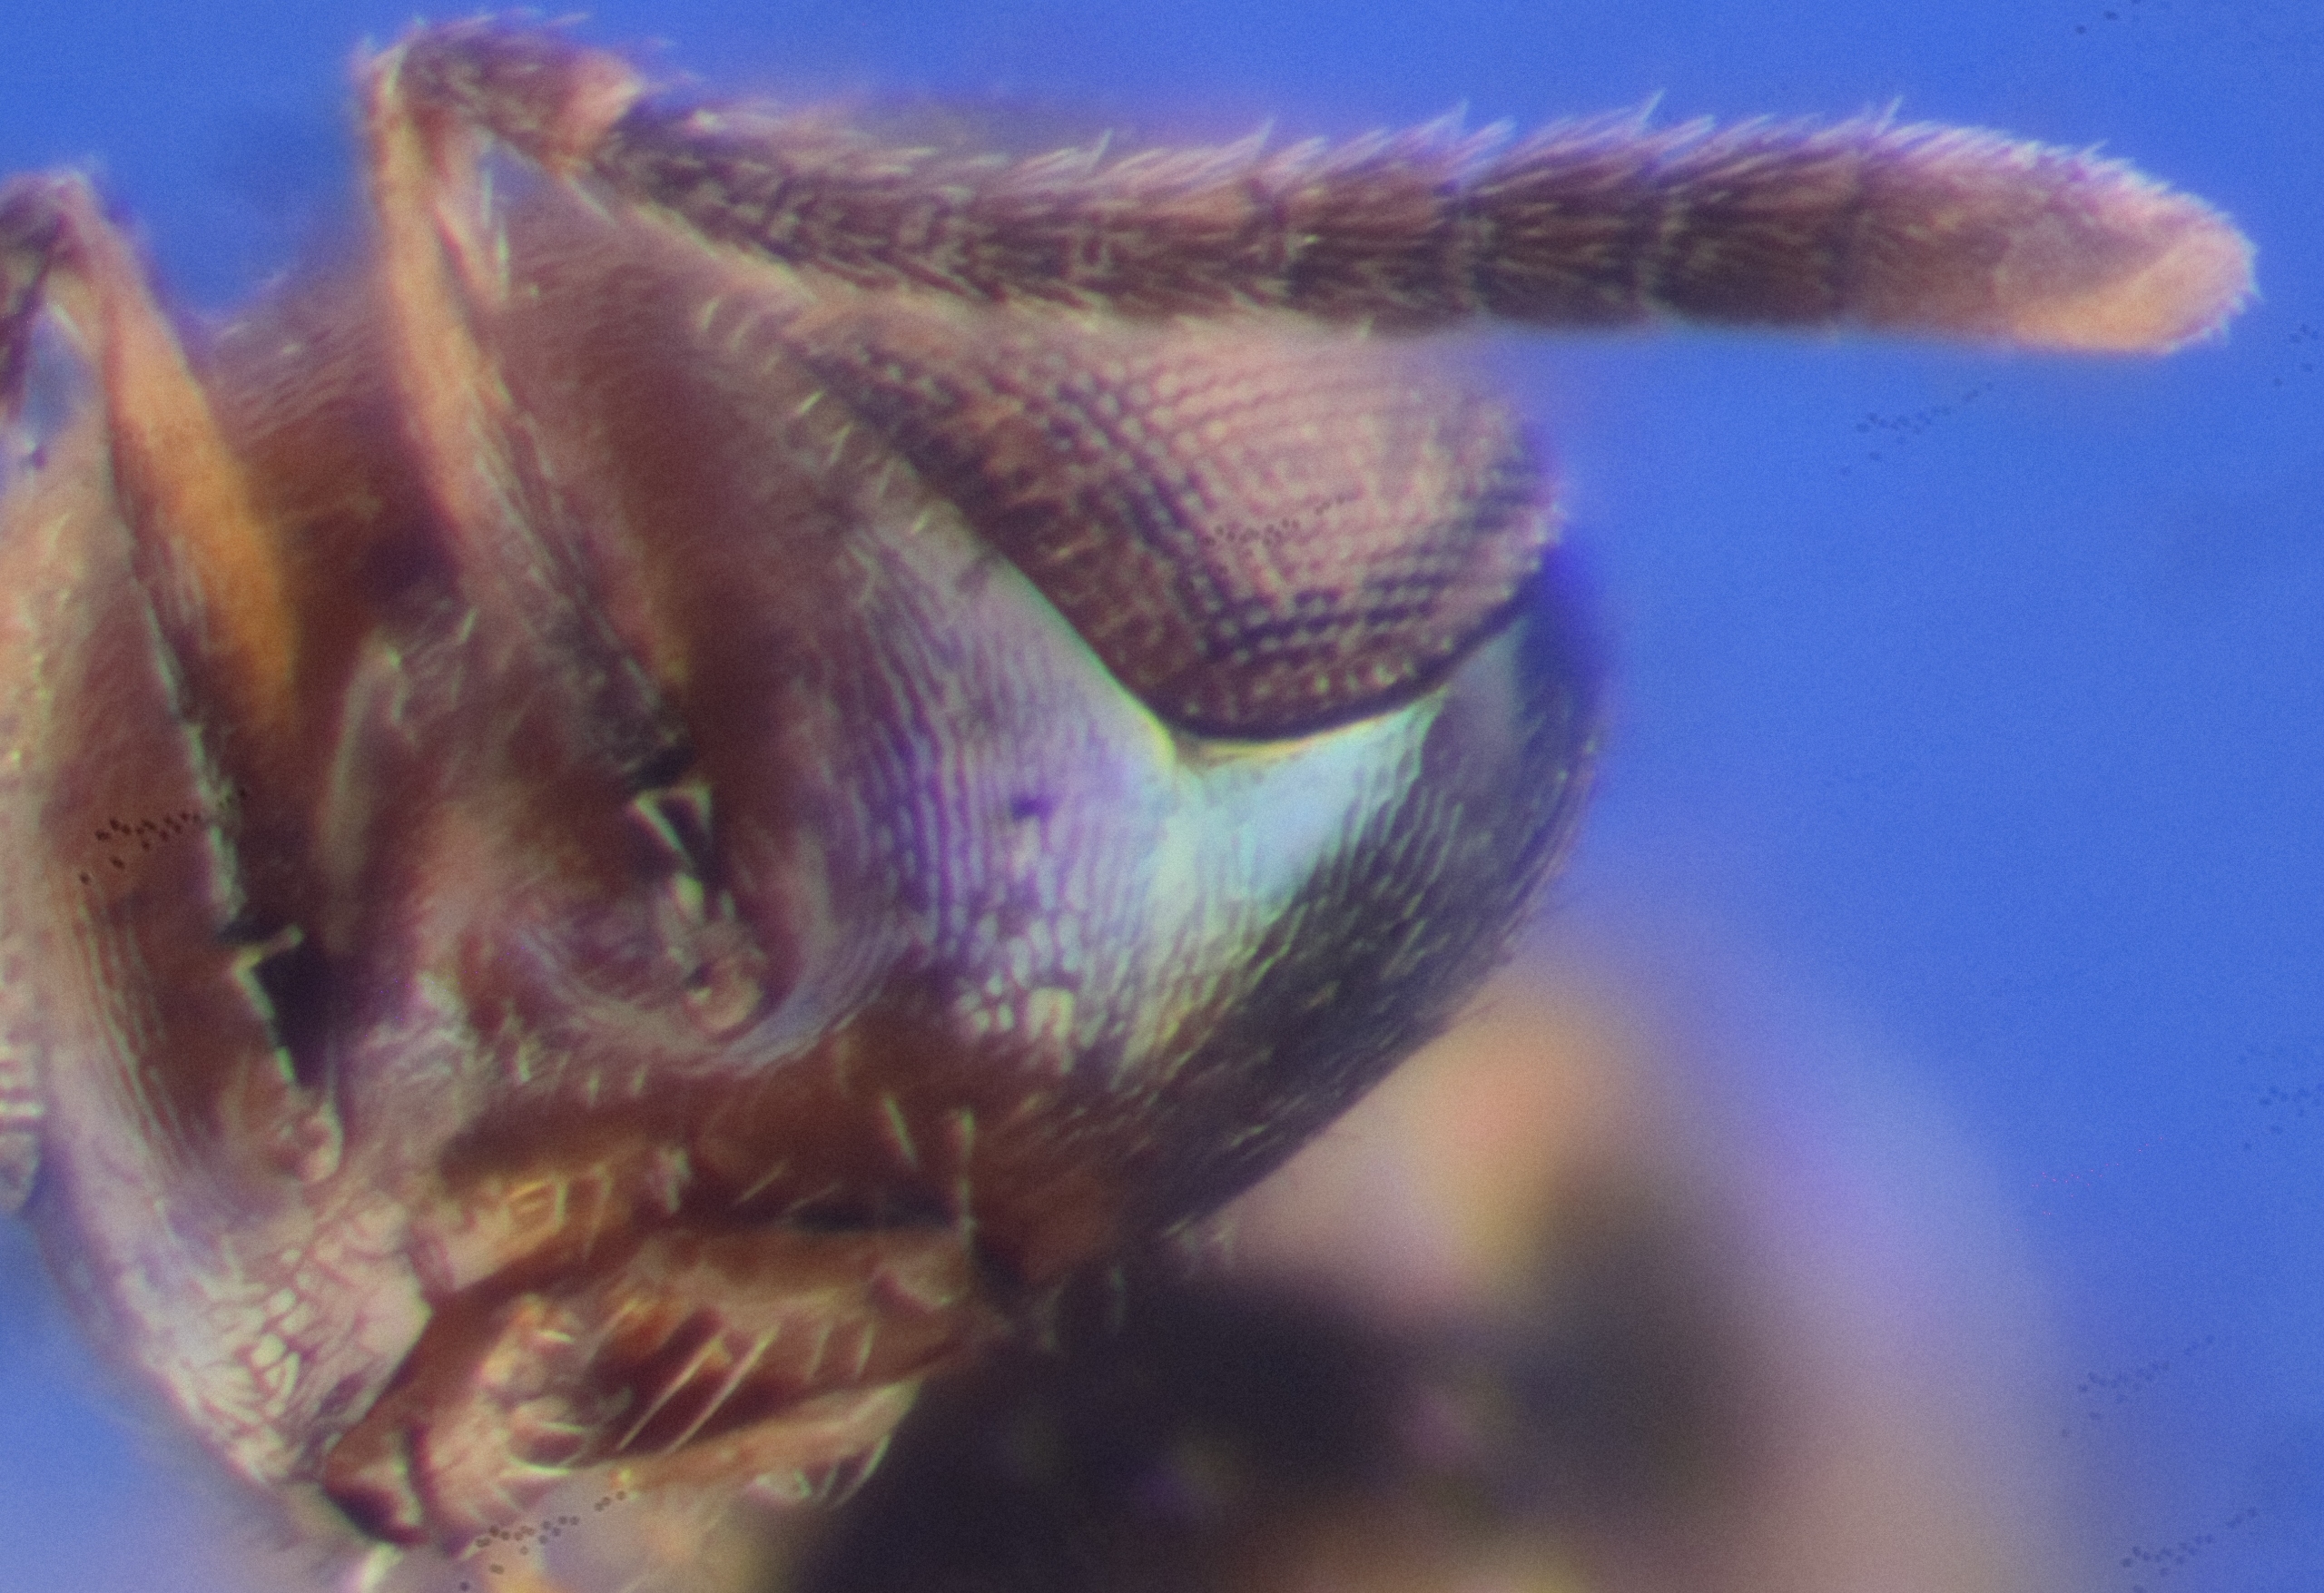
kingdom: Animalia
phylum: Arthropoda
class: Insecta
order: Hymenoptera
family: Encyrtidae
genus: Cheiloneurus
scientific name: Cheiloneurus elegans
